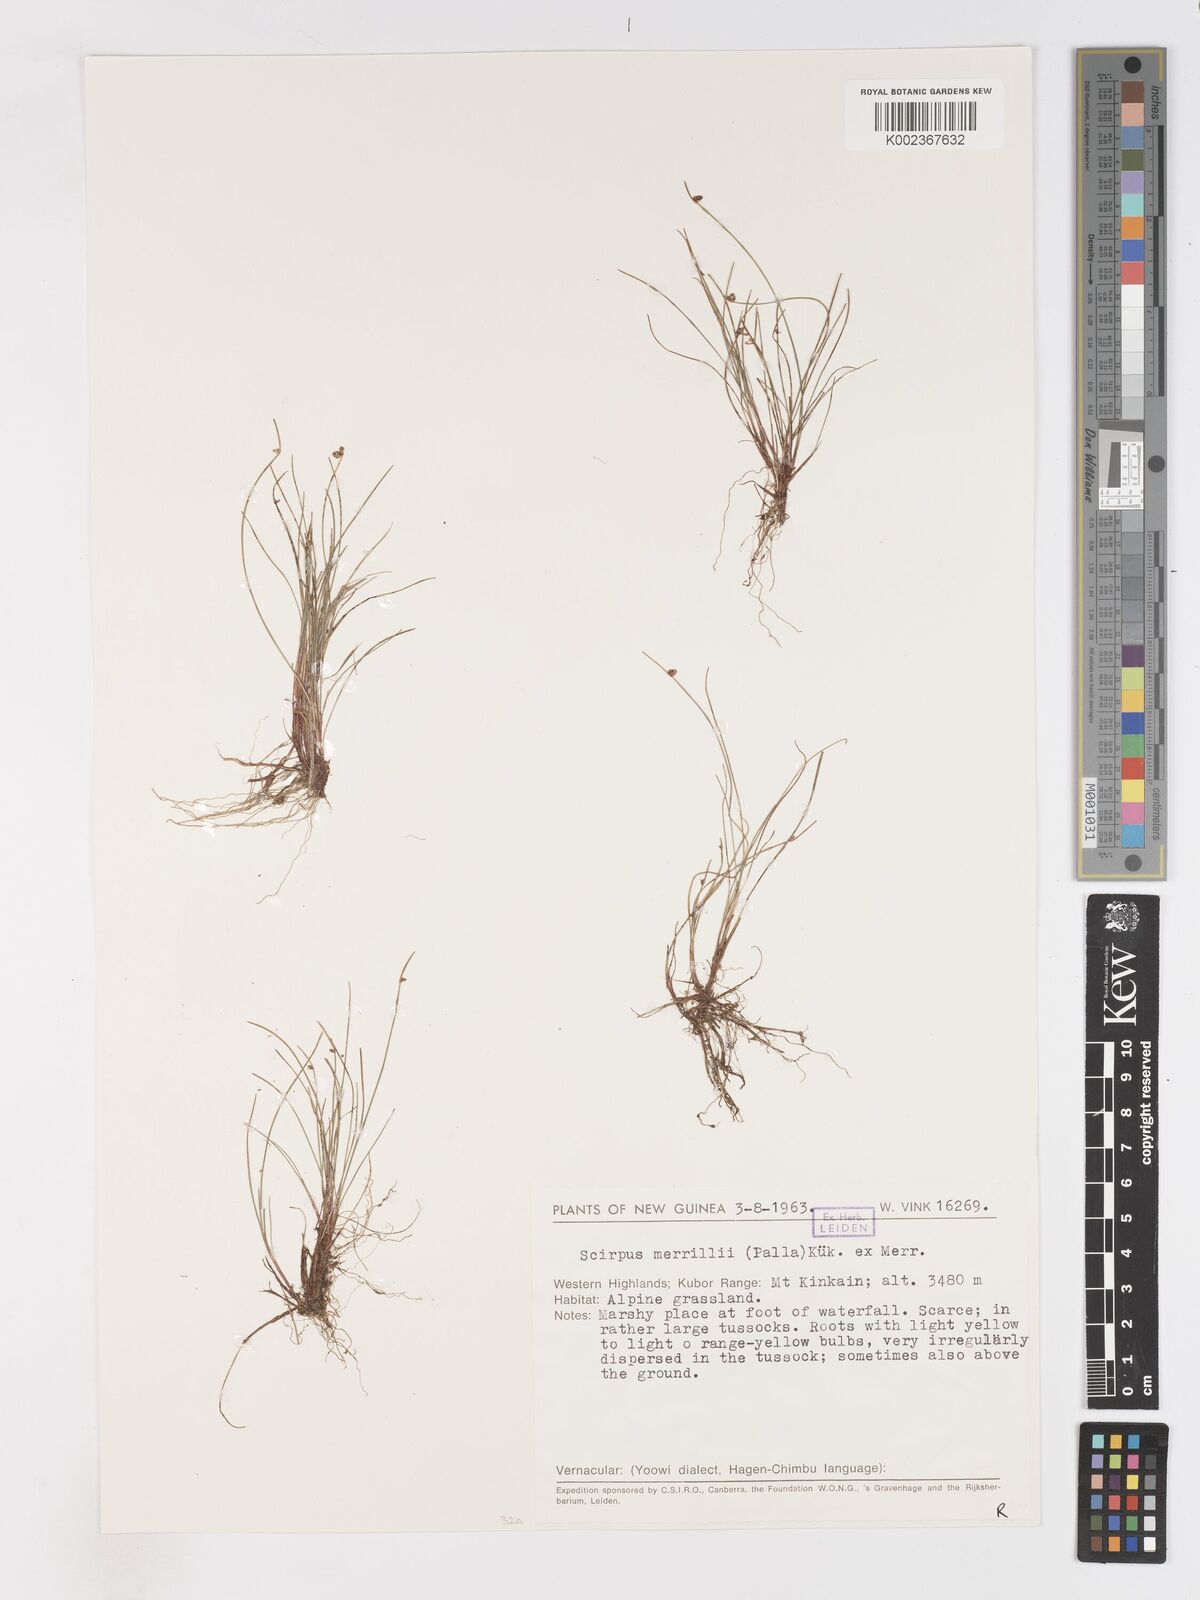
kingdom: Plantae
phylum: Tracheophyta
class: Liliopsida
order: Poales
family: Cyperaceae
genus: Isolepis
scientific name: Isolepis habra
